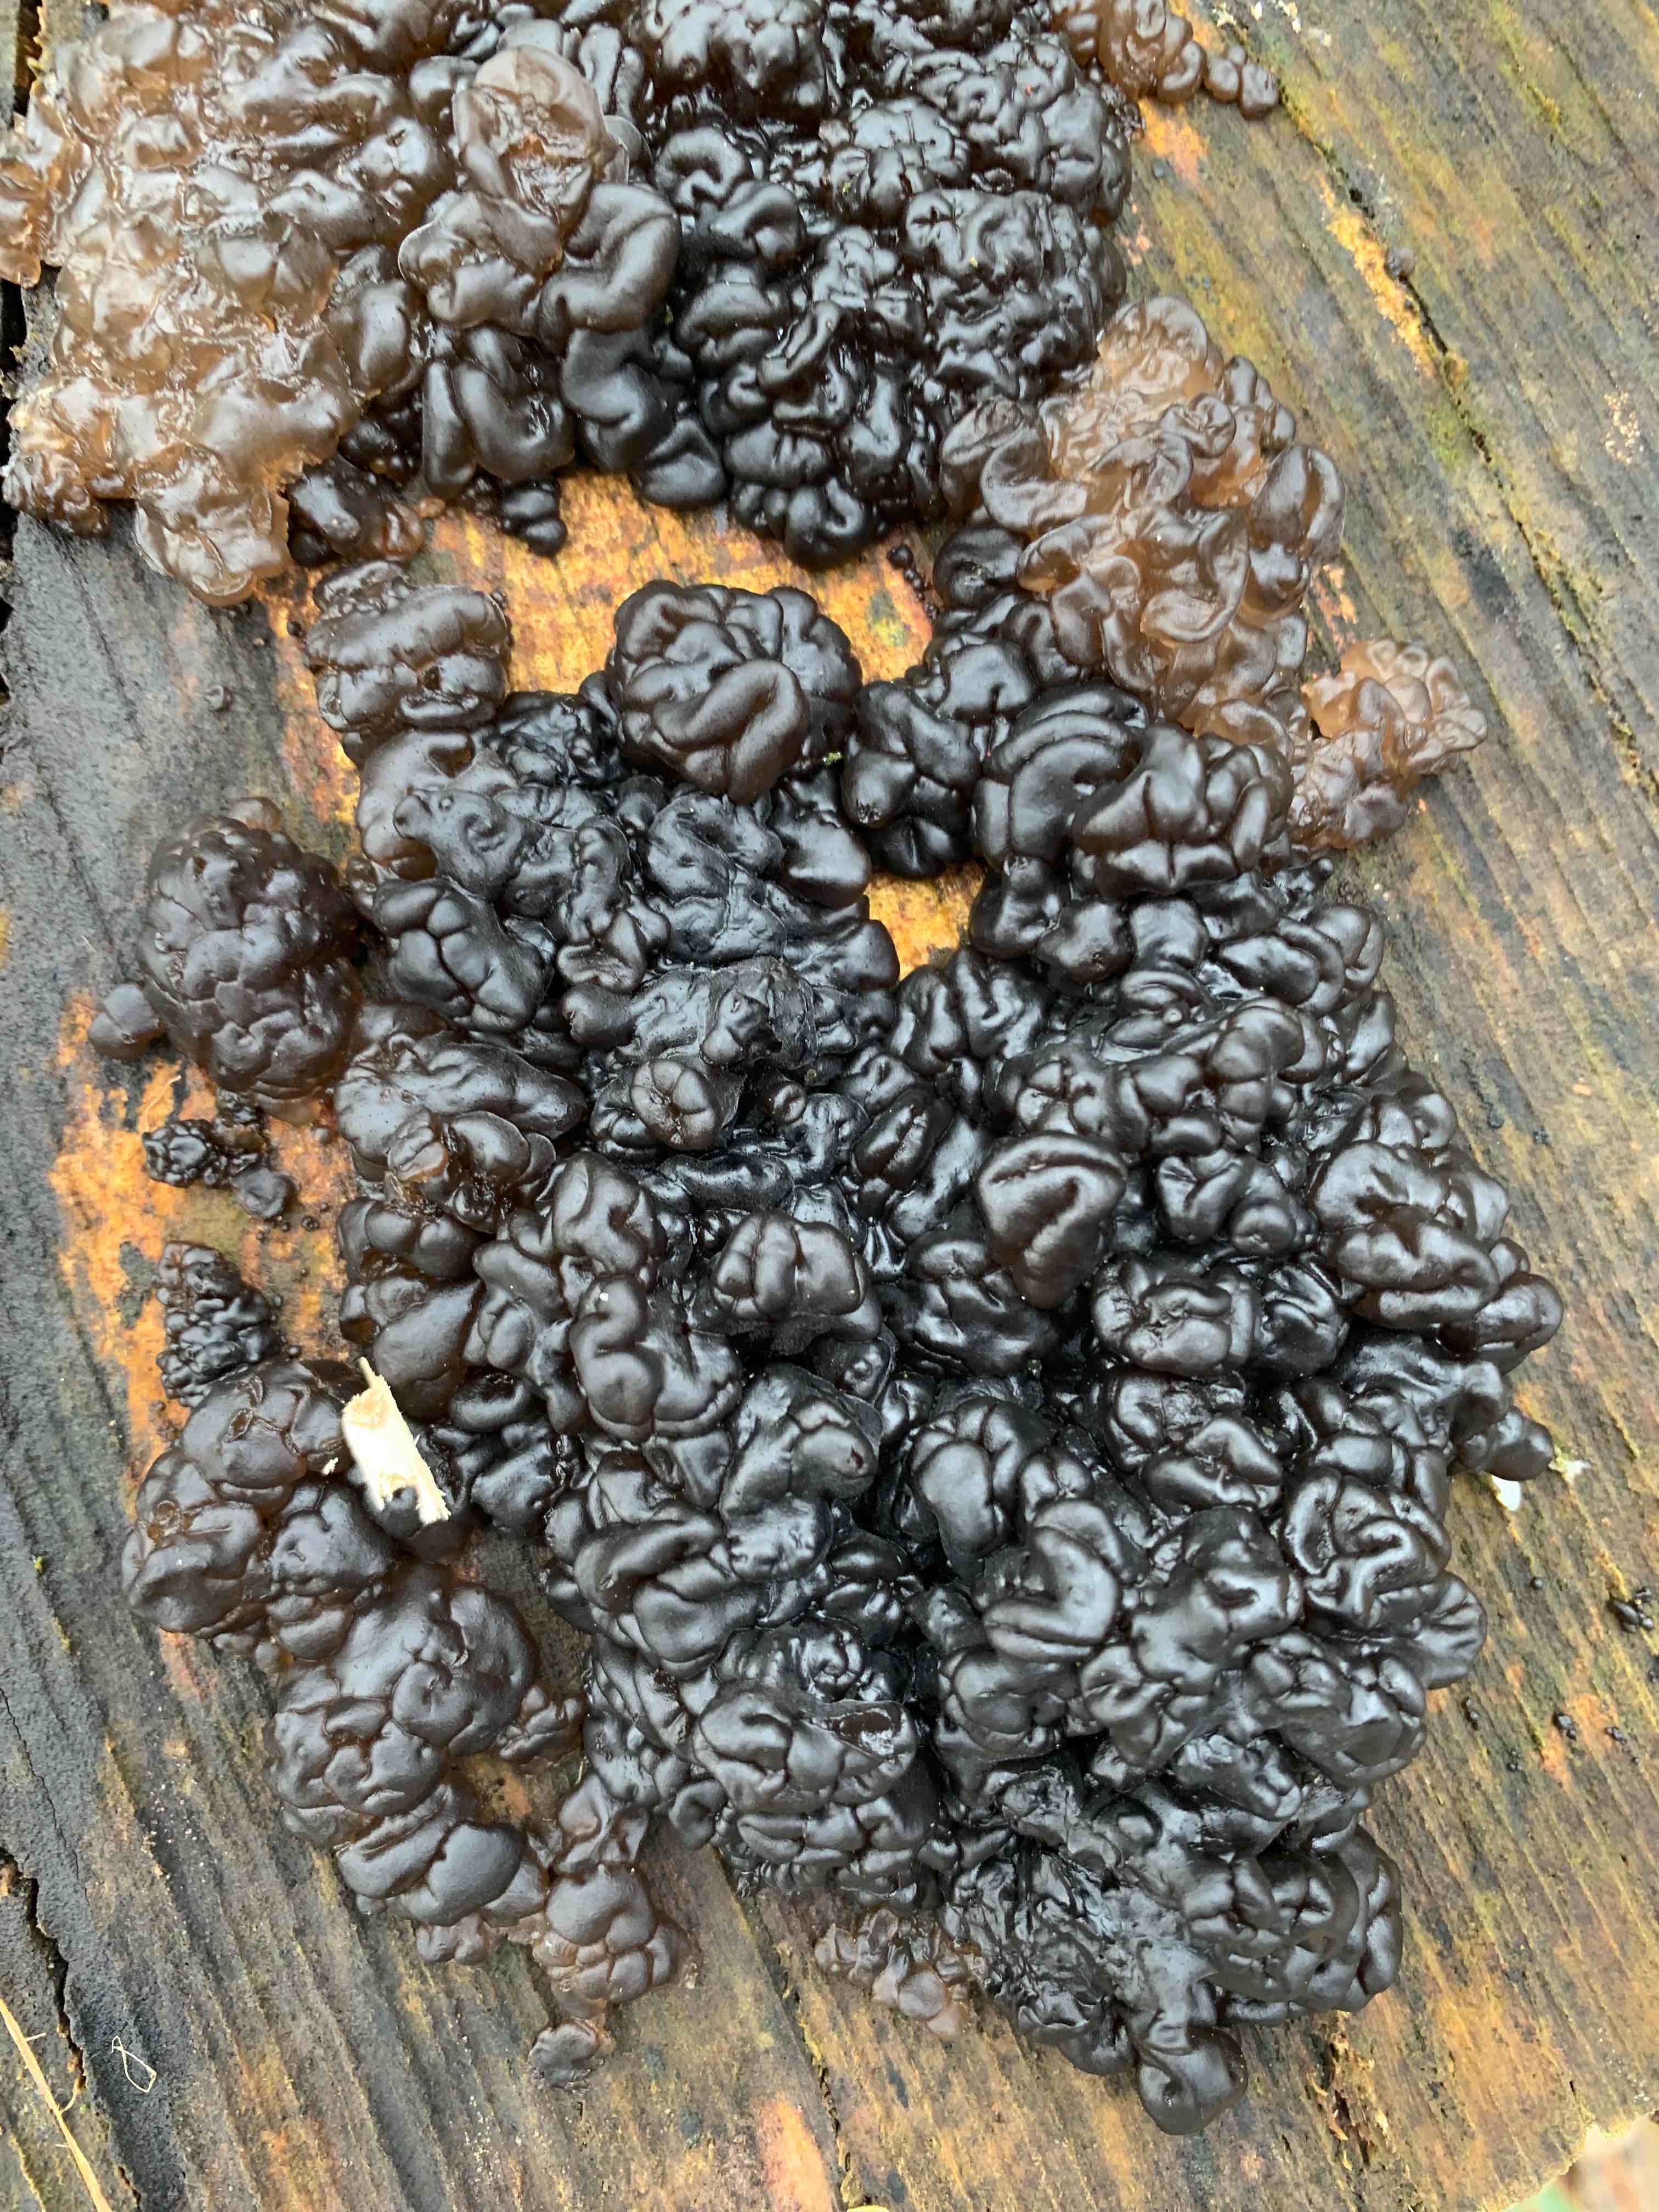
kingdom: Fungi
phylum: Basidiomycota
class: Agaricomycetes
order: Auriculariales
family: Auriculariaceae
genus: Exidia
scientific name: Exidia nigricans
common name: almindelig bævretop
